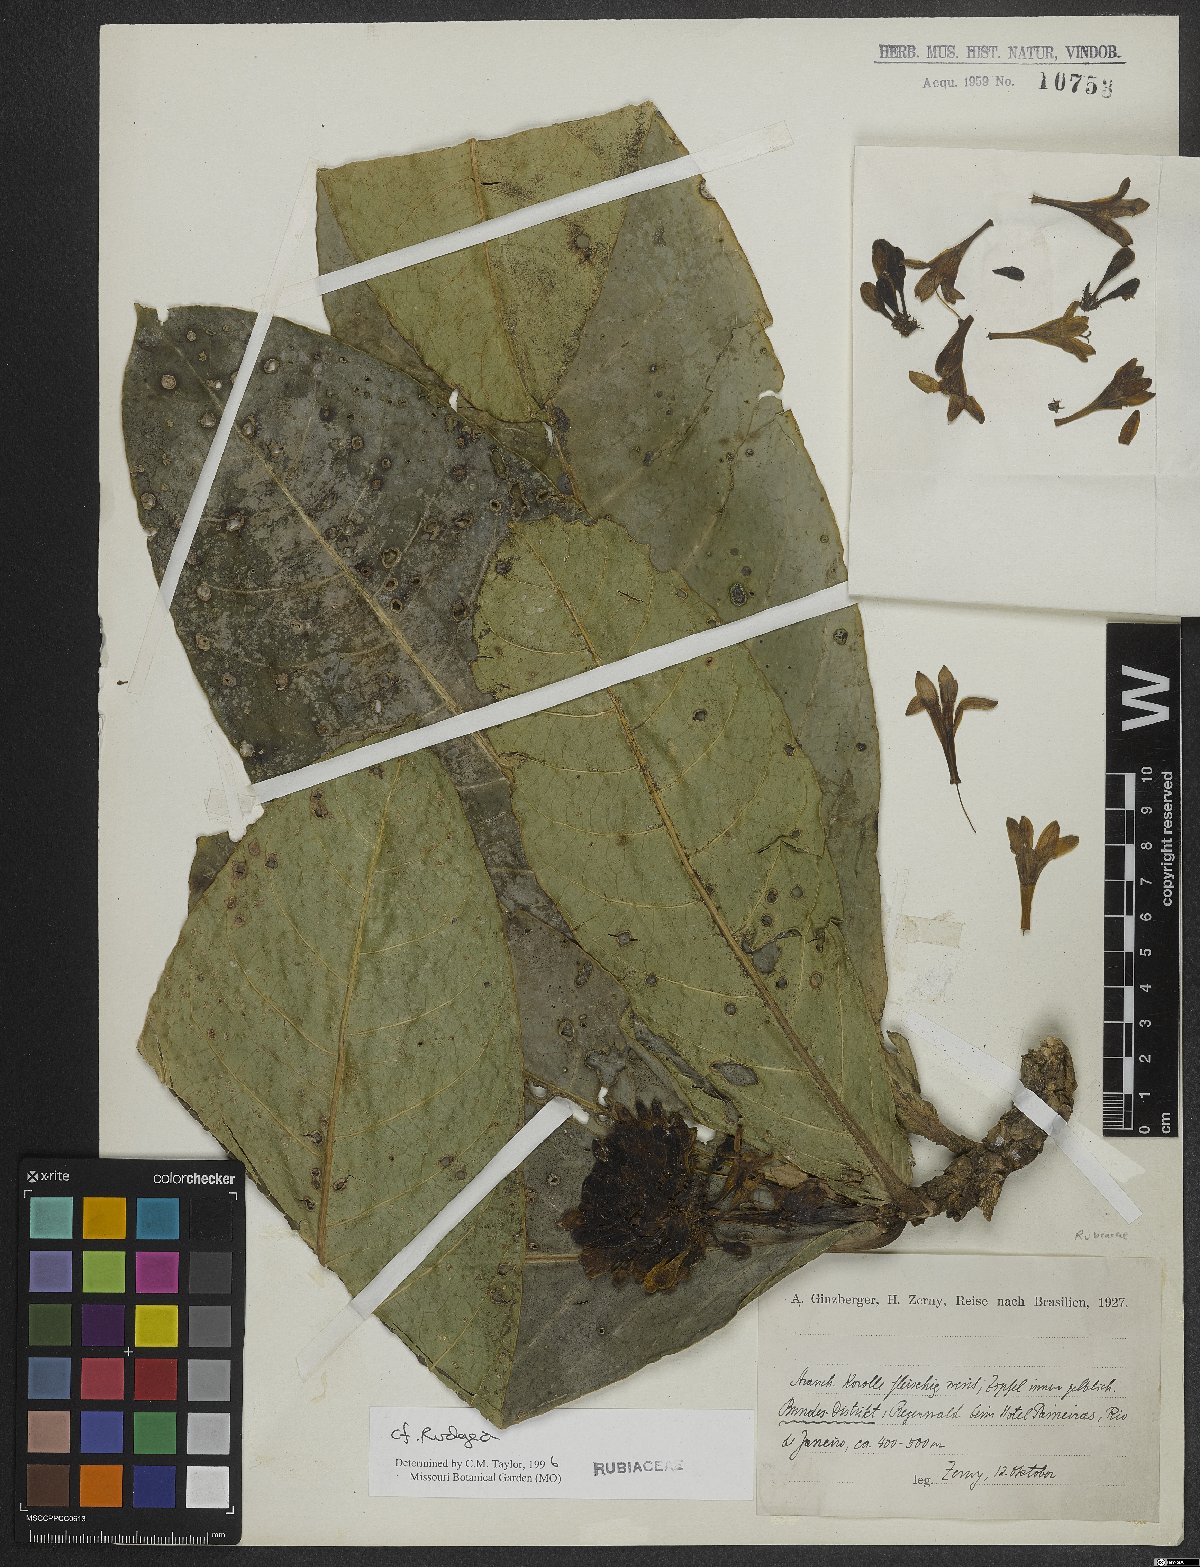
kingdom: Plantae
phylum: Tracheophyta
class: Magnoliopsida
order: Gentianales
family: Rubiaceae
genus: Rudgea
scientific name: Rudgea
